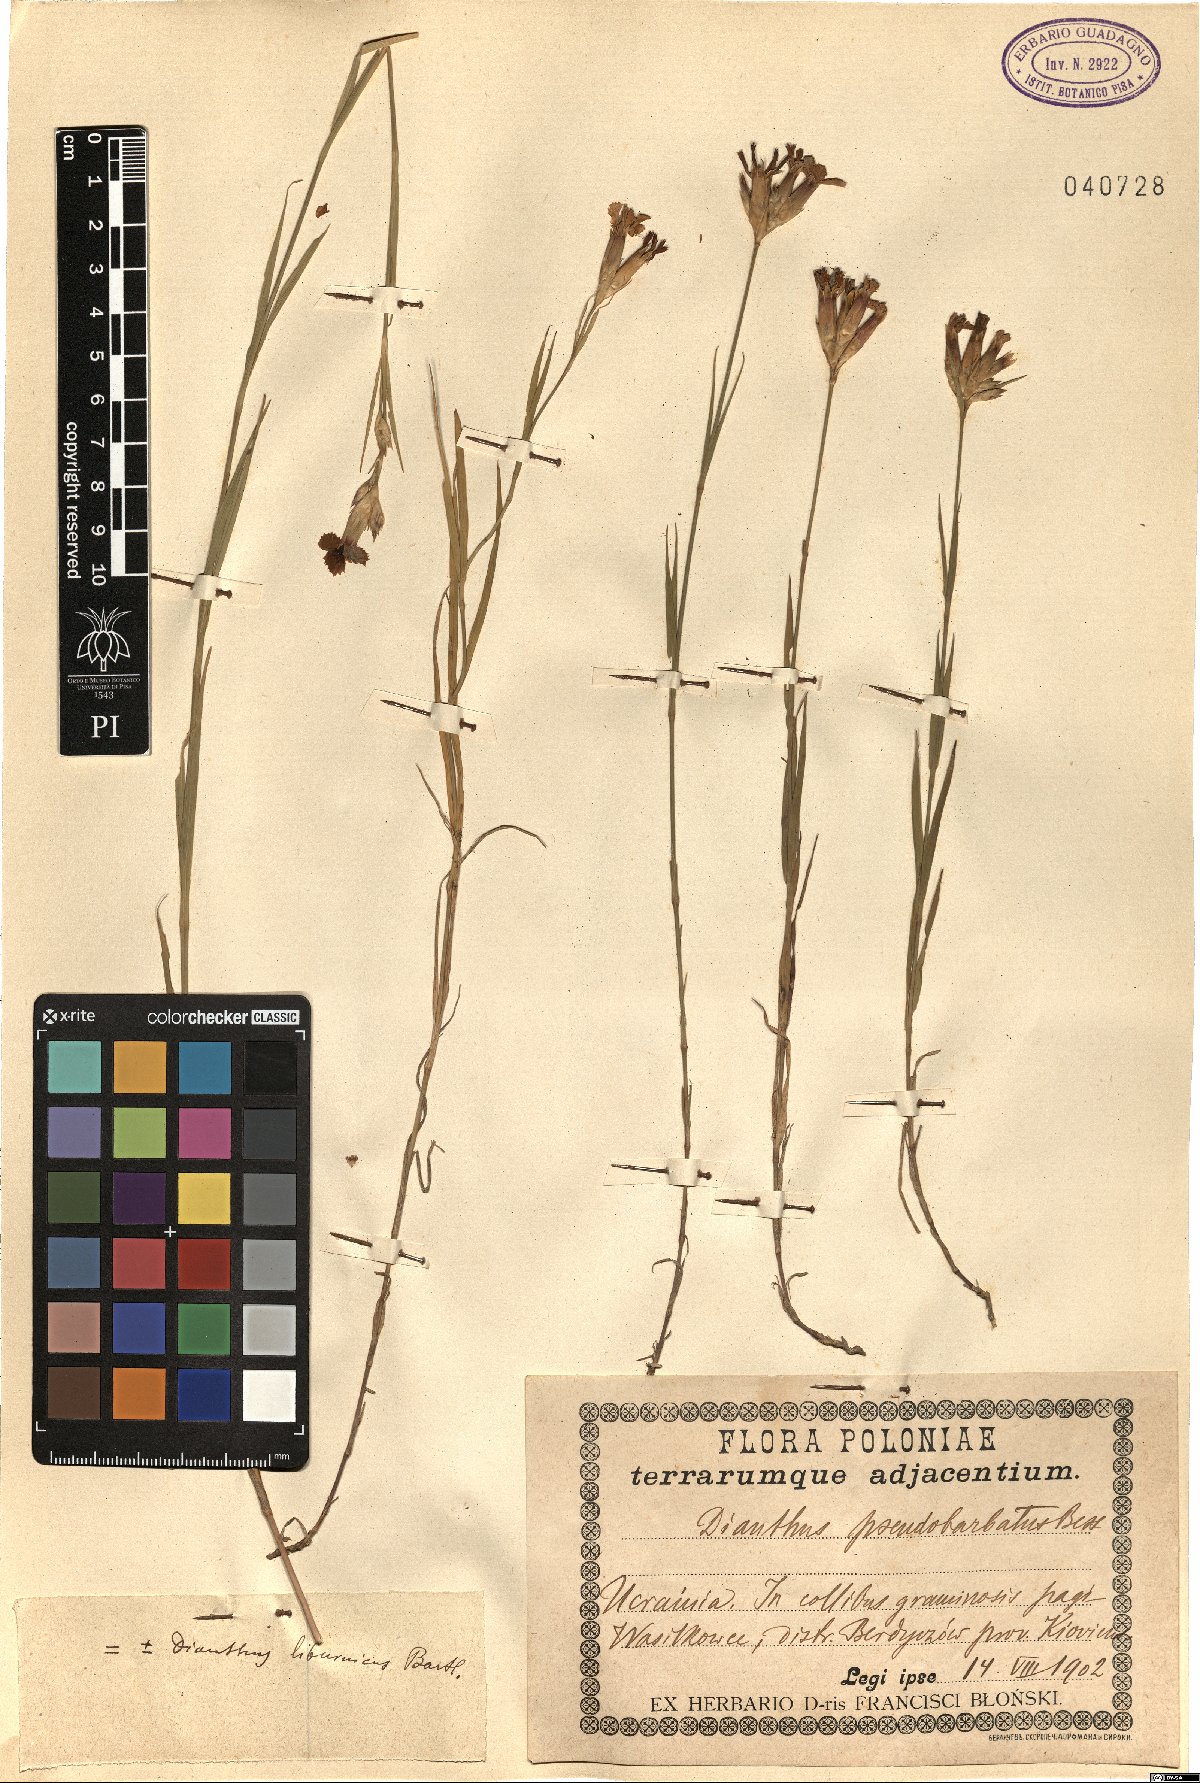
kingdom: Plantae
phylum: Tracheophyta
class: Magnoliopsida
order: Caryophyllales
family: Caryophyllaceae
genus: Dianthus
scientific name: Dianthus balbisii
